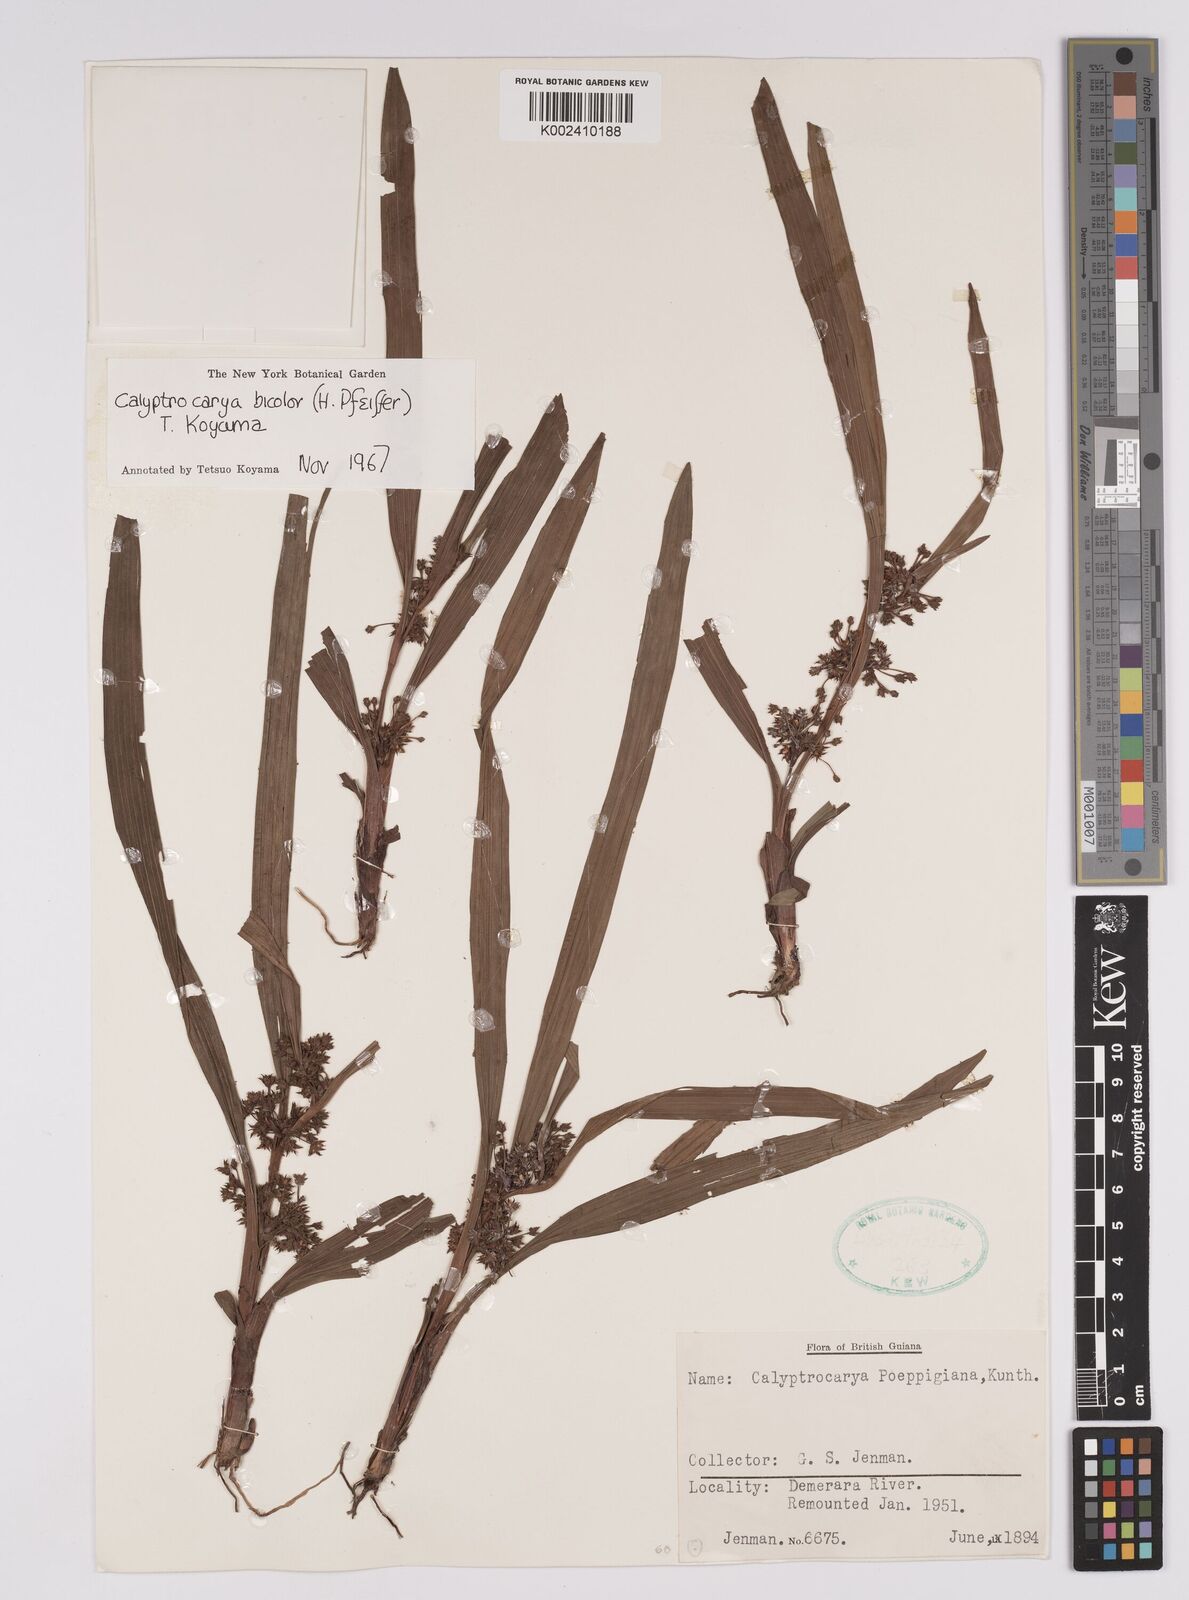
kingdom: Plantae
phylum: Tracheophyta
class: Liliopsida
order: Poales
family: Cyperaceae
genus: Calyptrocarya
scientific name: Calyptrocarya bicolor
